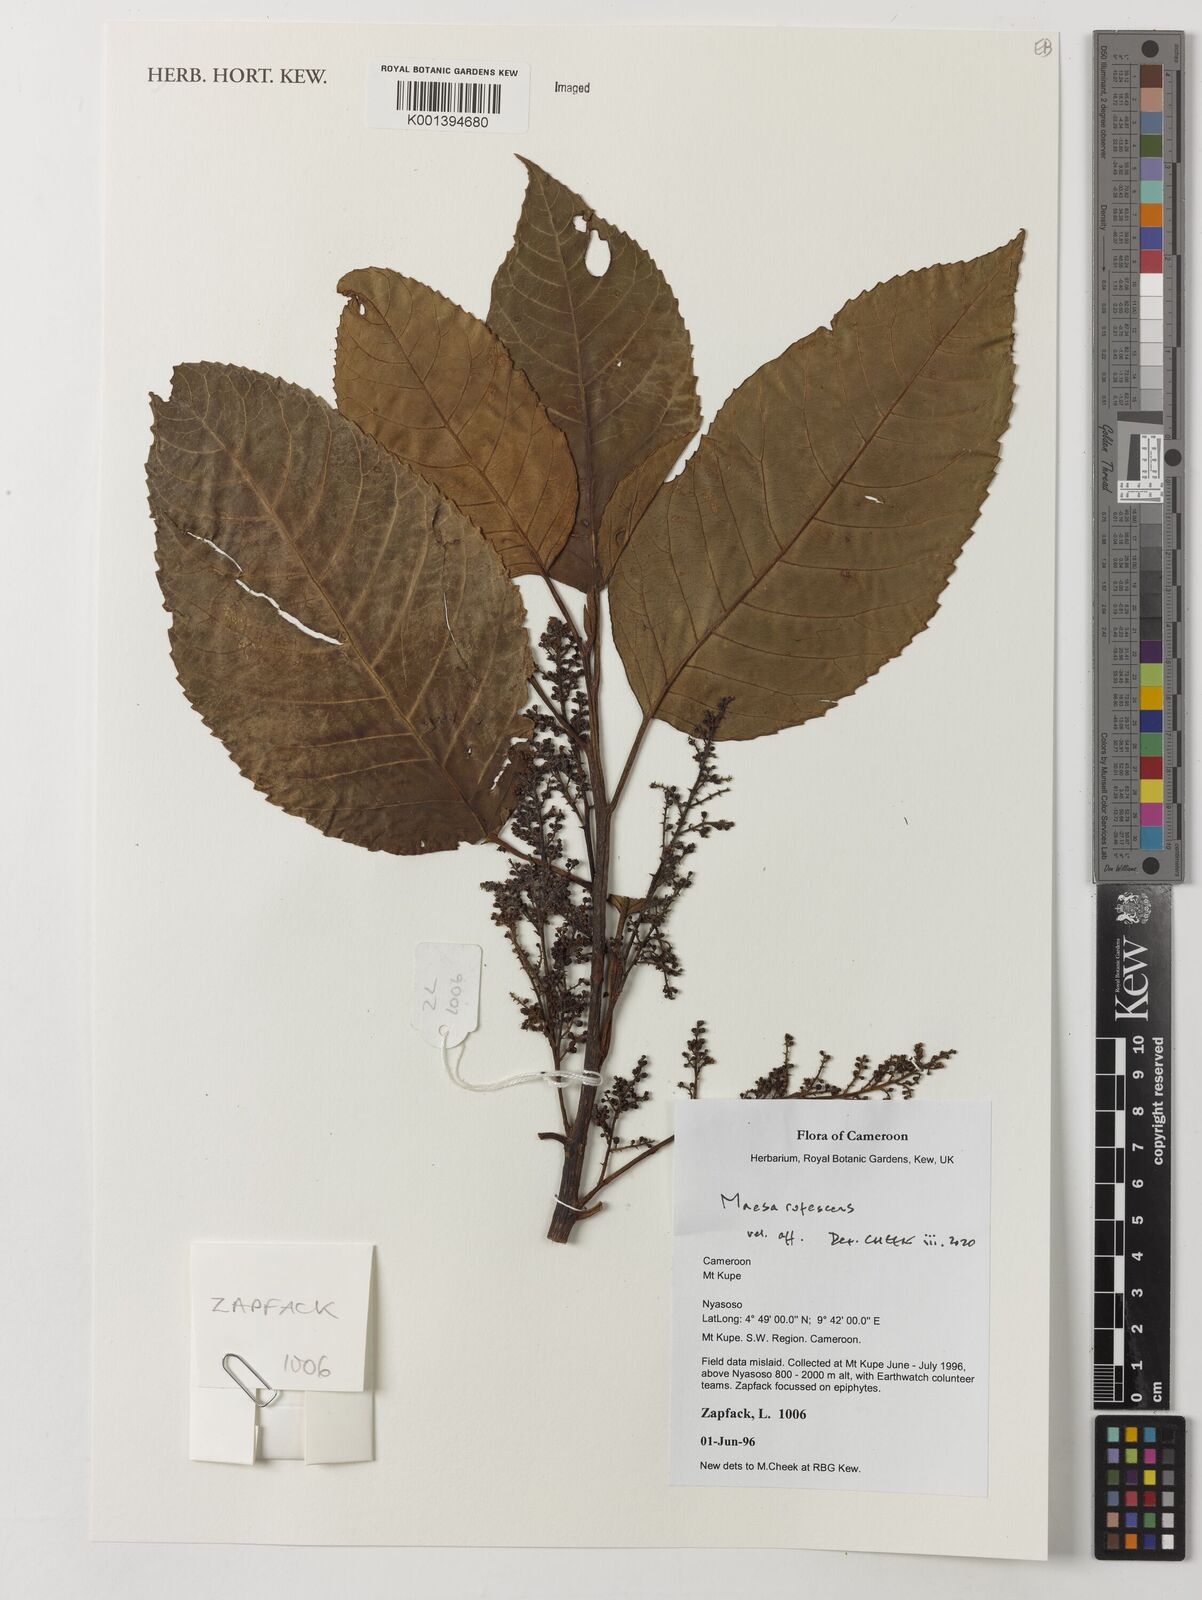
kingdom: Plantae
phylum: Tracheophyta
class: Magnoliopsida
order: Ericales
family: Primulaceae
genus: Maesa
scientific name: Maesa lanceolata
